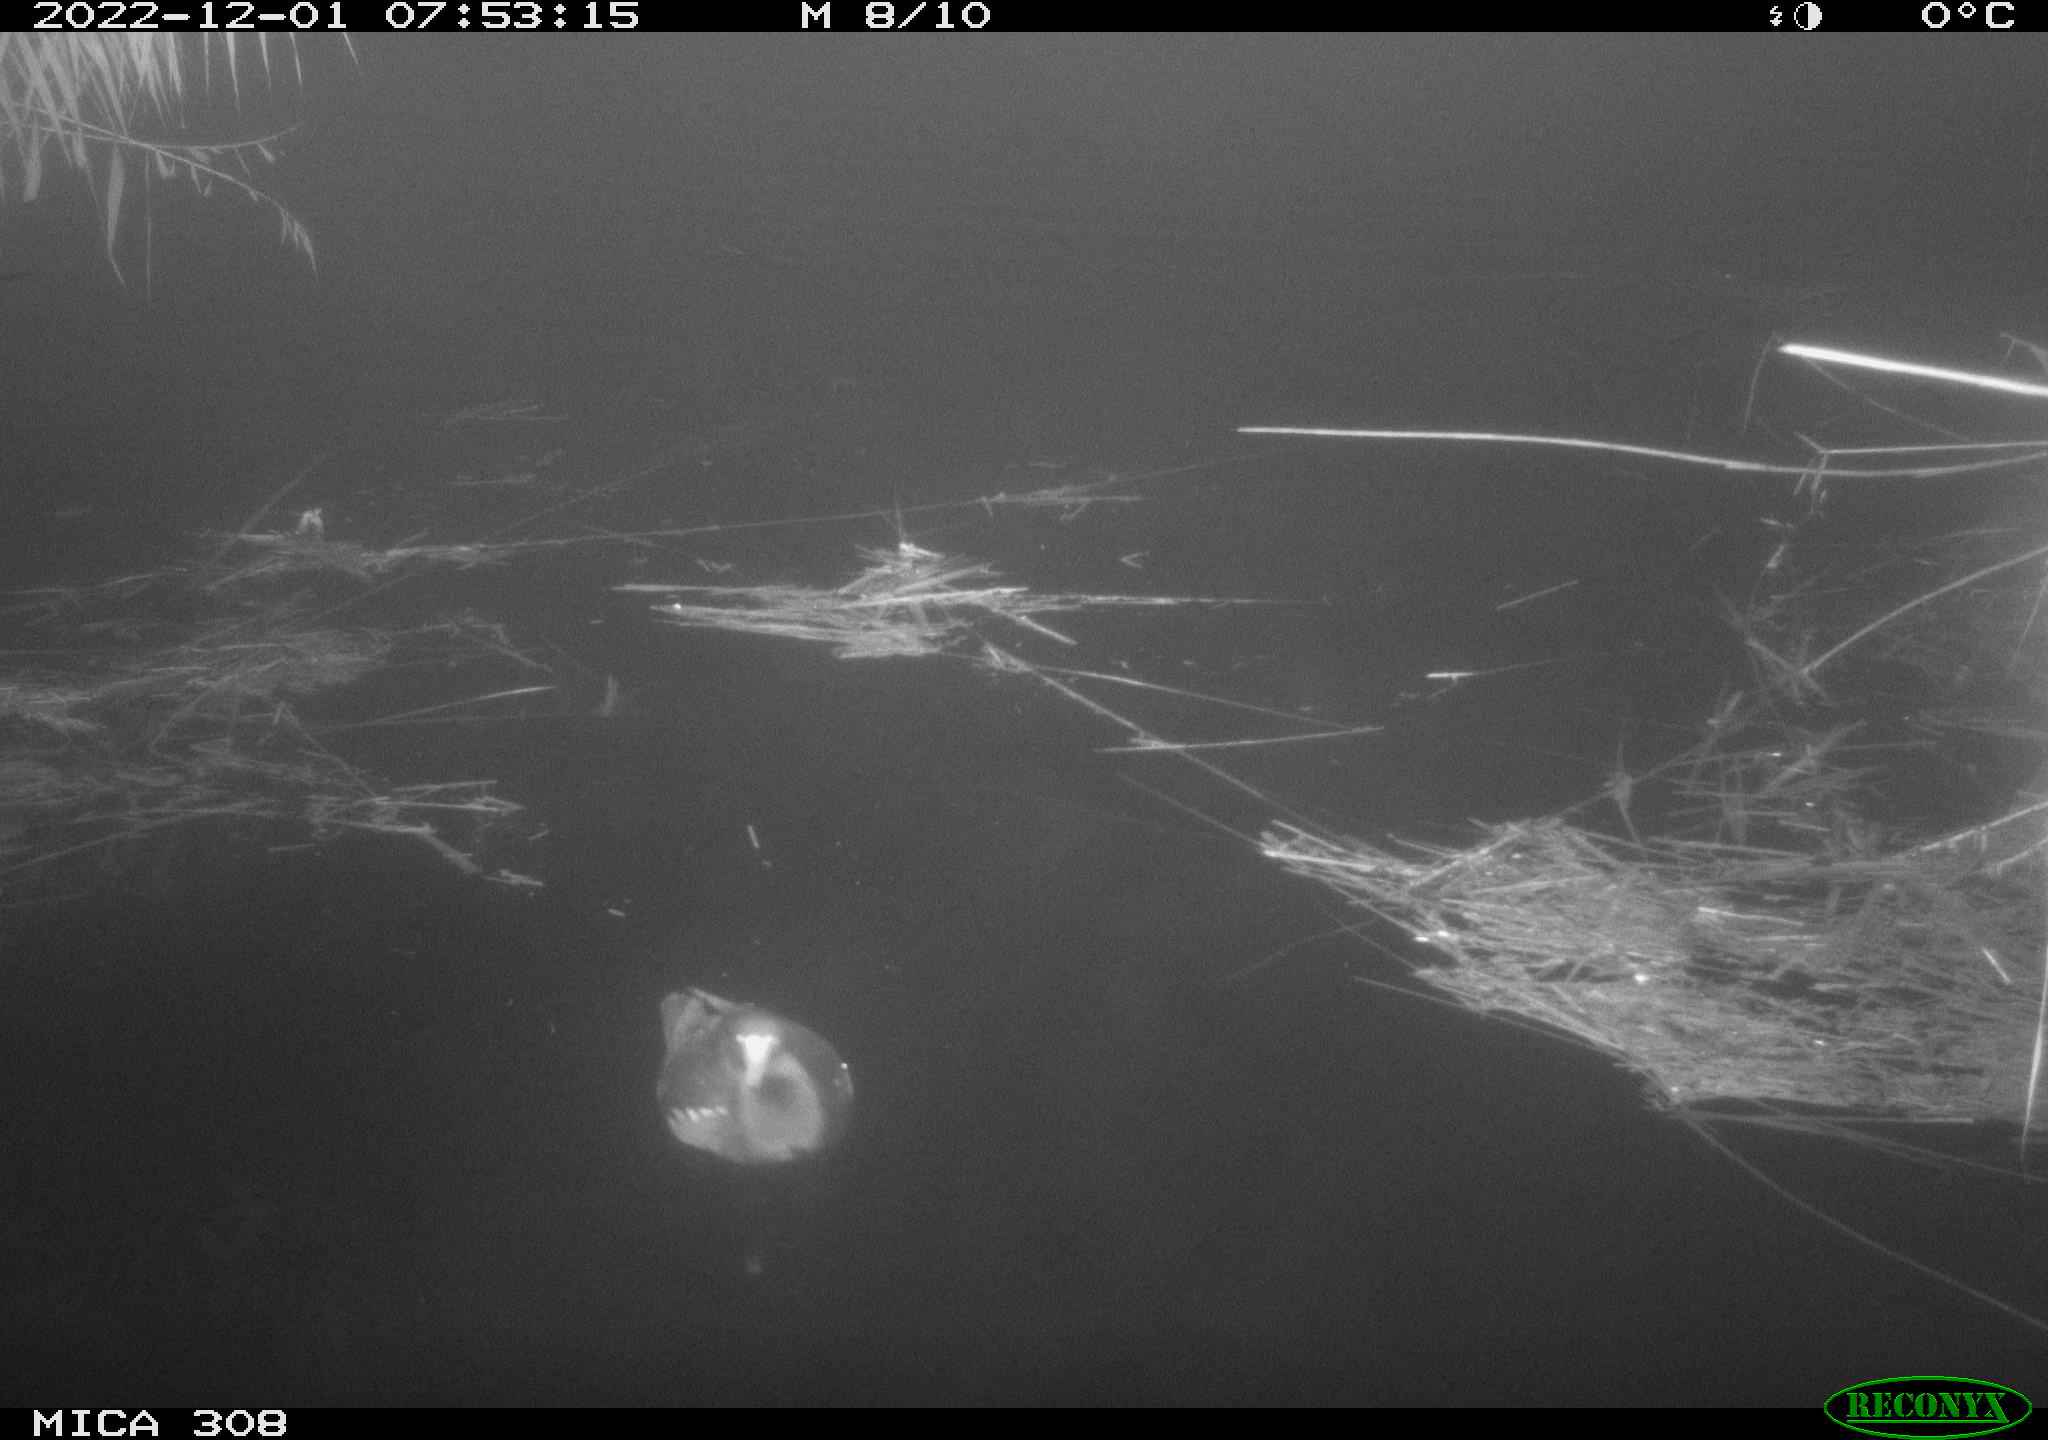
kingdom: Animalia
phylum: Chordata
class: Aves
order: Gruiformes
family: Rallidae
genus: Fulica
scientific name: Fulica atra
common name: Eurasian coot
